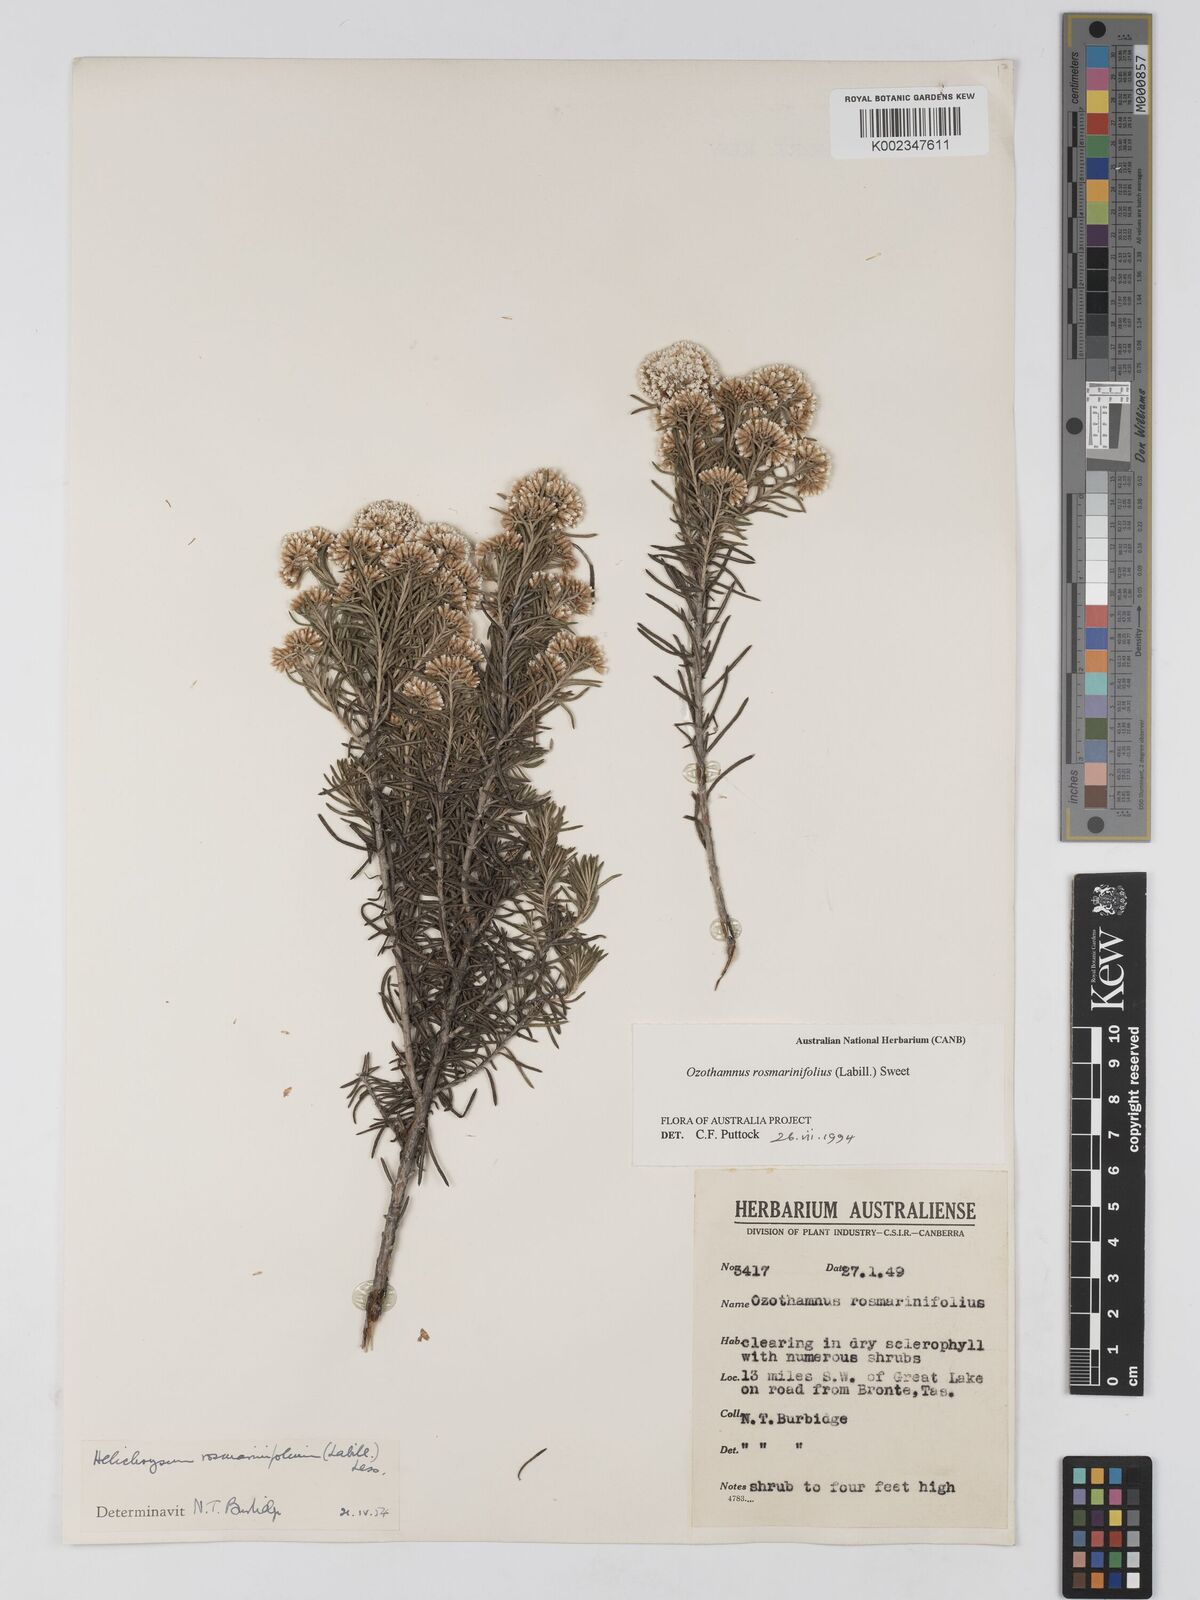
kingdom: Plantae
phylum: Tracheophyta
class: Magnoliopsida
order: Asterales
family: Asteraceae
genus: Ozothamnus
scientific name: Ozothamnus rosmarinifolius
